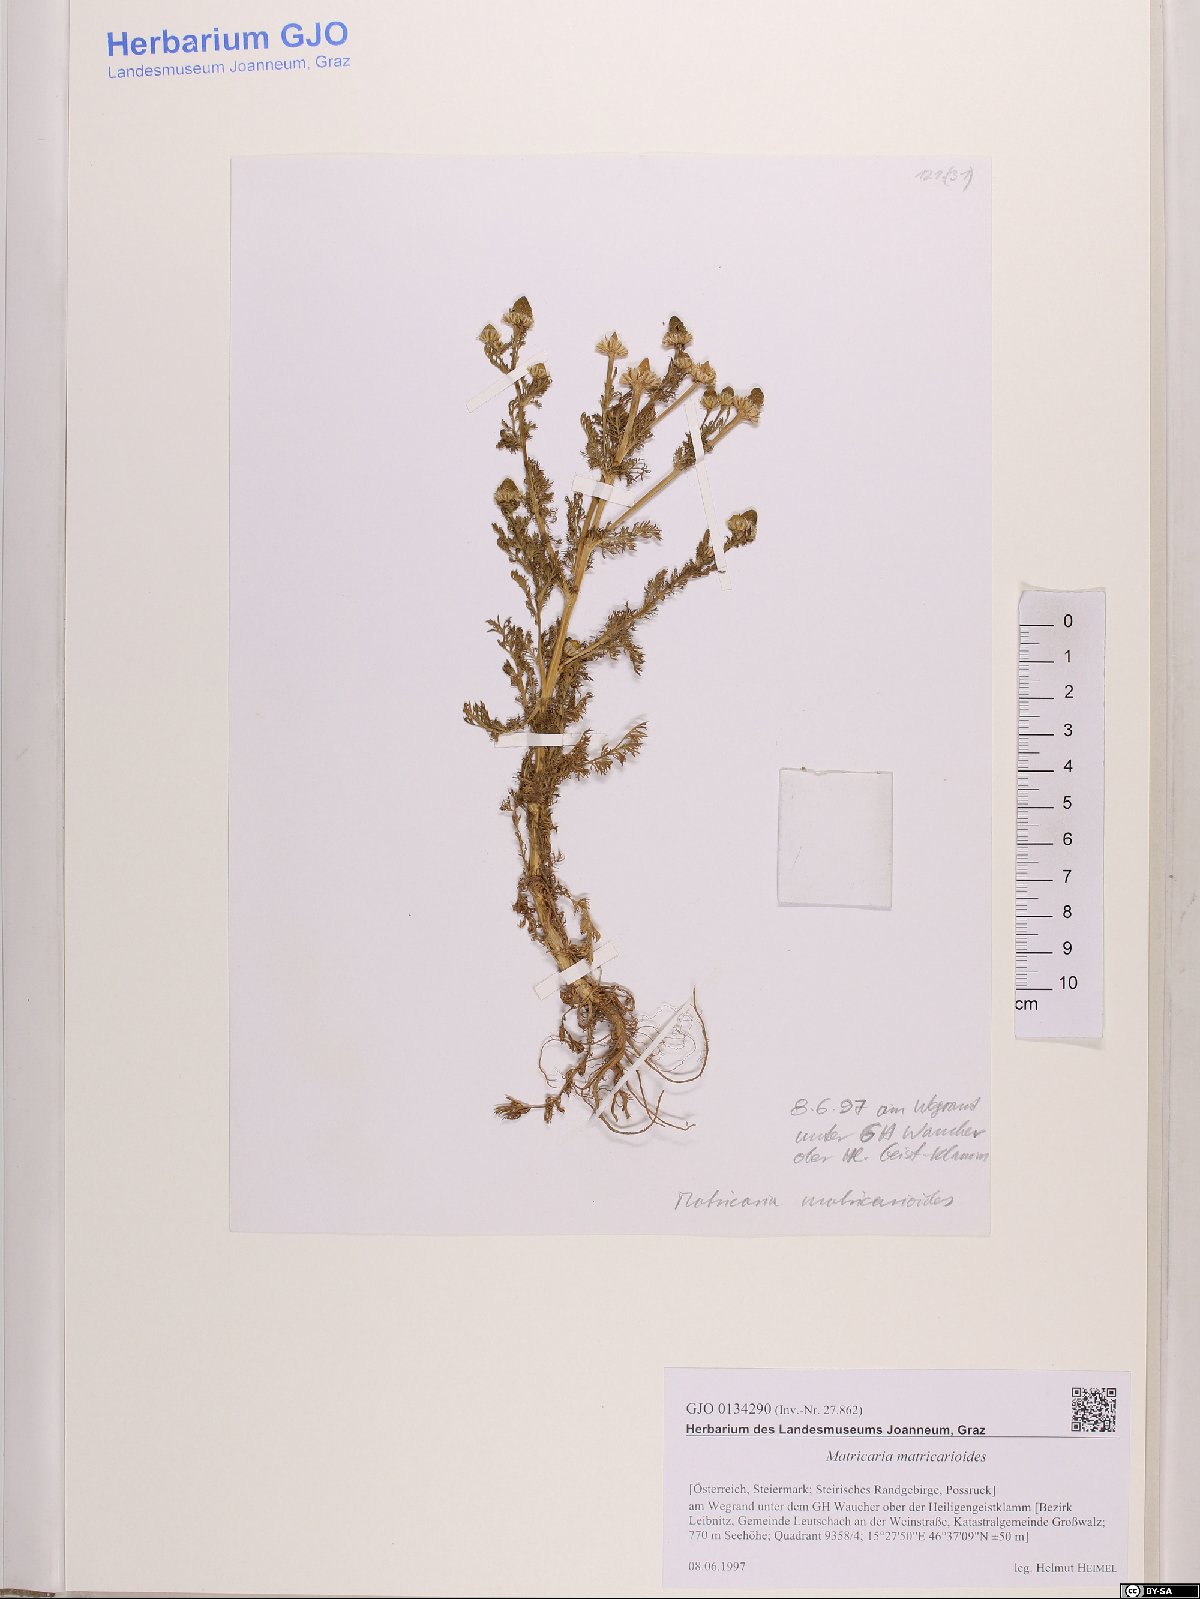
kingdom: Plantae
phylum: Tracheophyta
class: Magnoliopsida
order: Asterales
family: Asteraceae
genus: Matricaria
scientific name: Matricaria discoidea
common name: Disc mayweed
